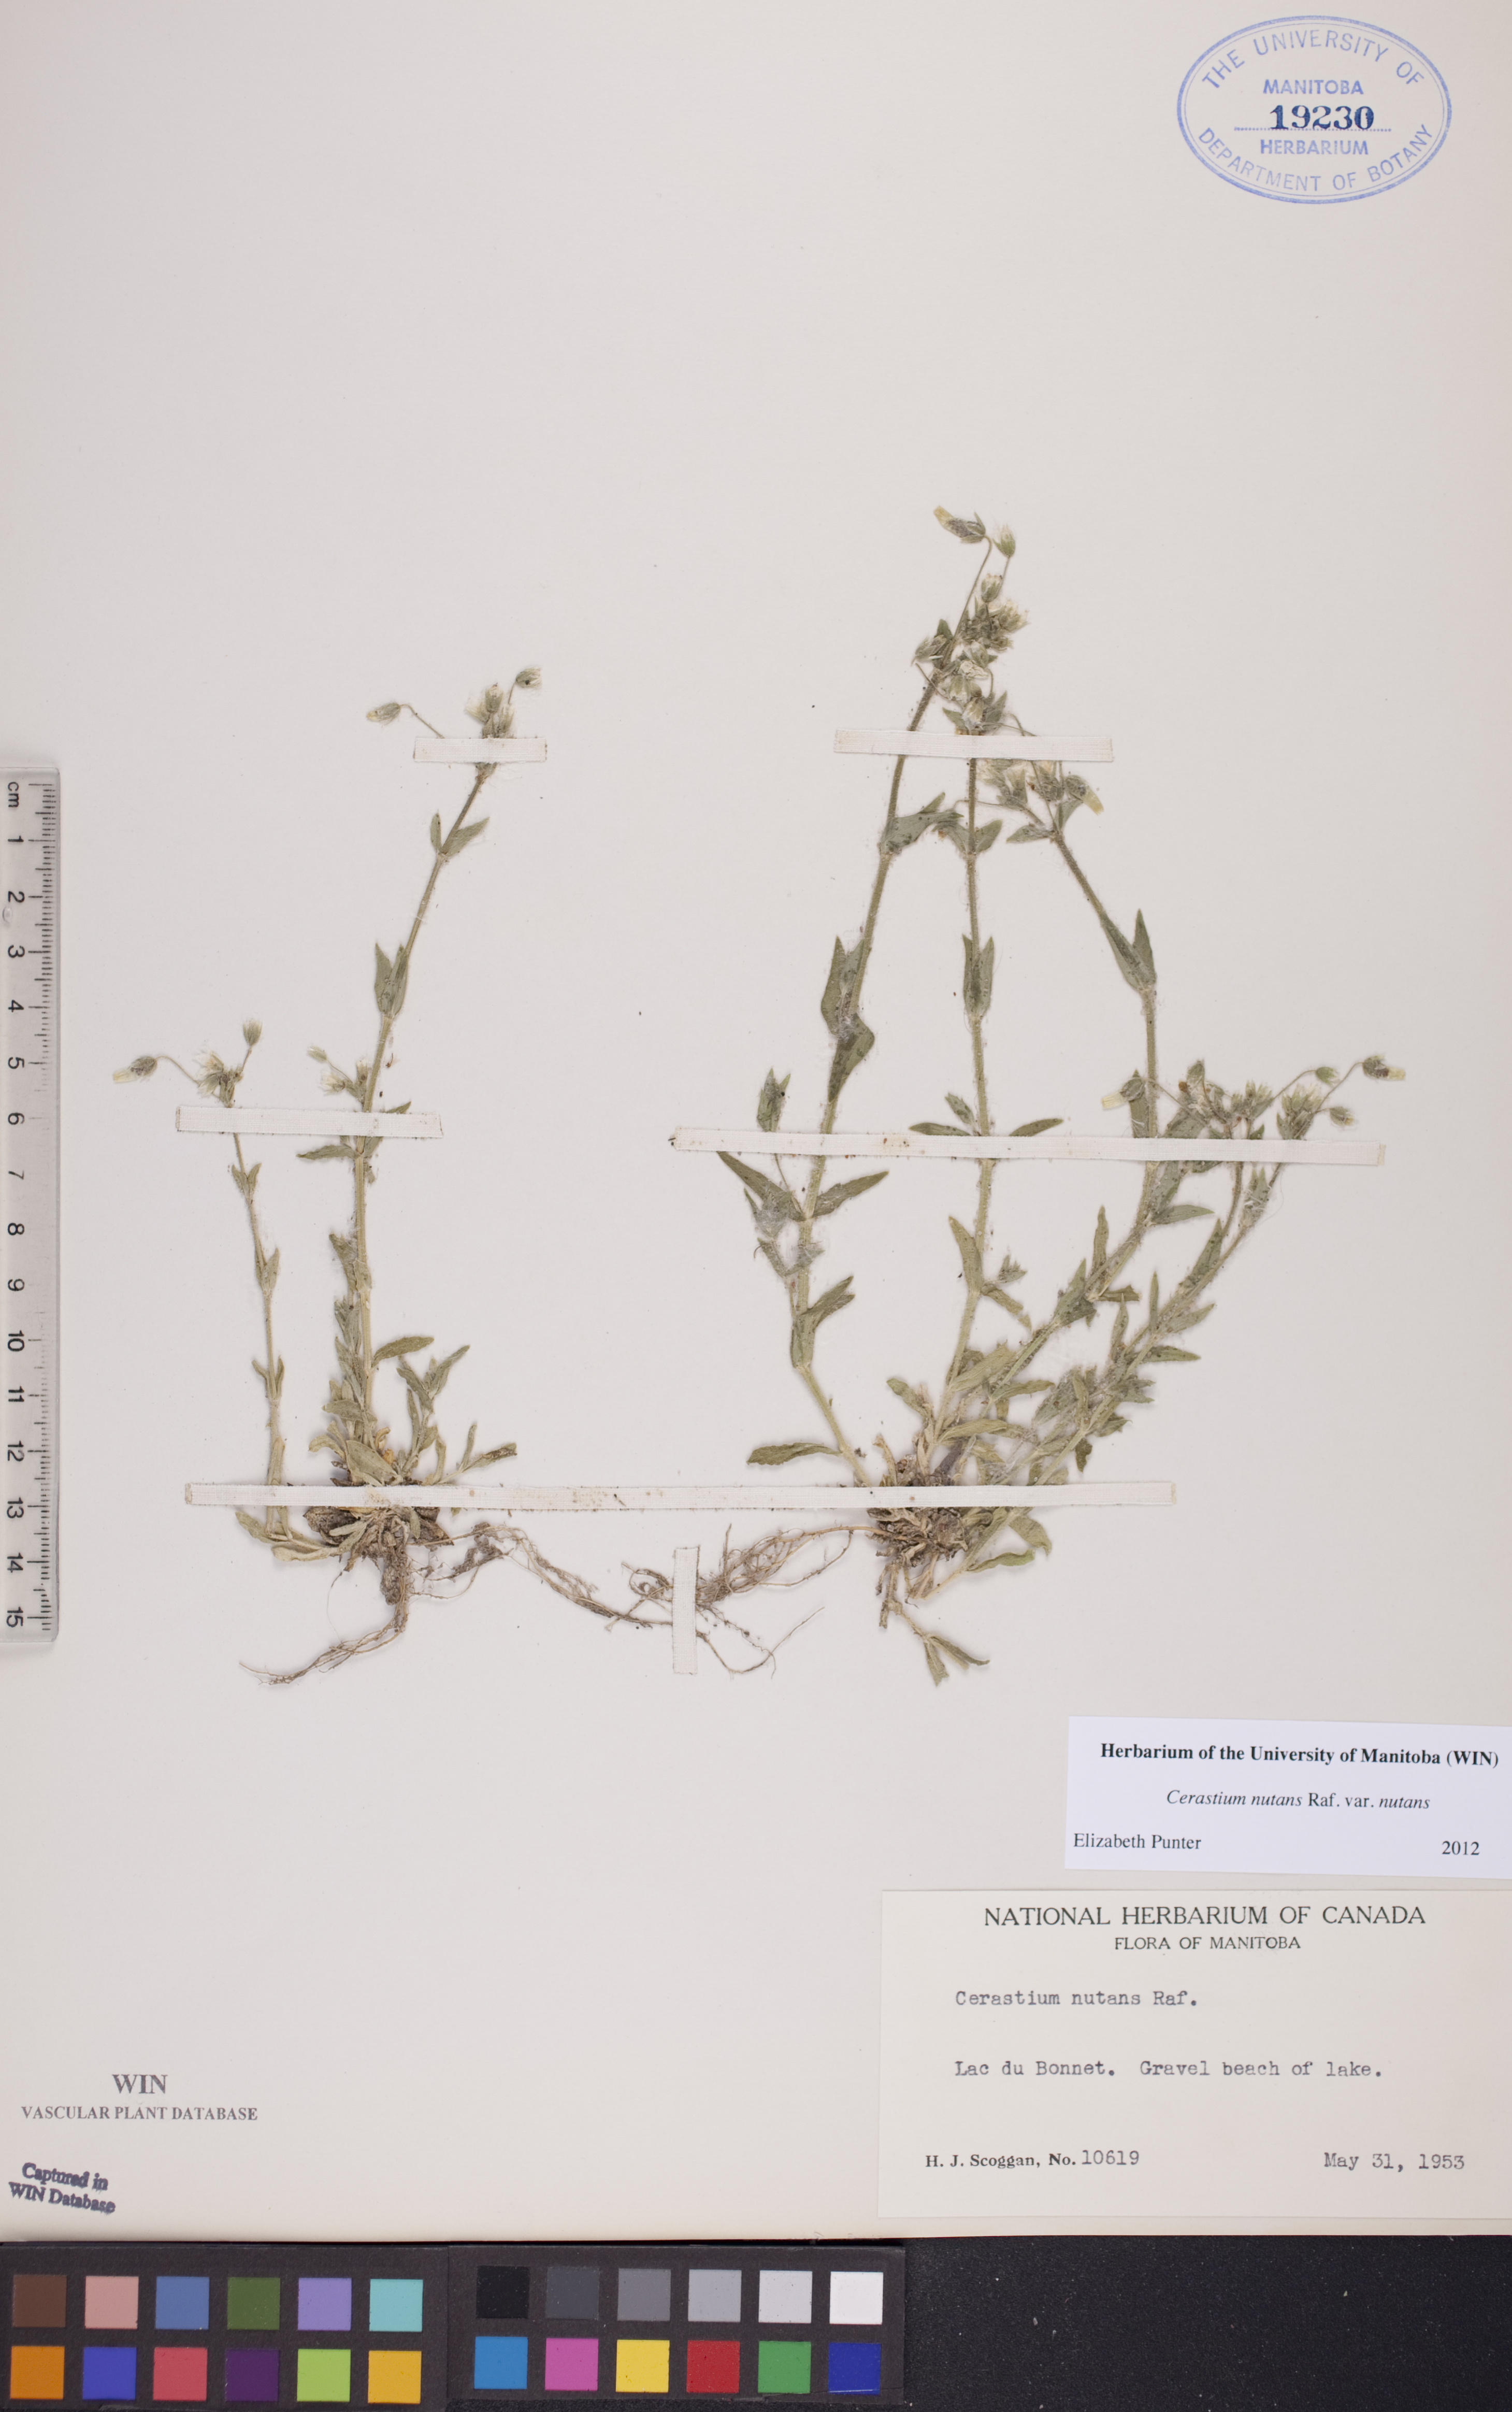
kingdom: Plantae
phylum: Tracheophyta
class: Magnoliopsida
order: Caryophyllales
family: Caryophyllaceae
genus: Cerastium
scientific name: Cerastium nutans
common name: Long-stalked chickweed
